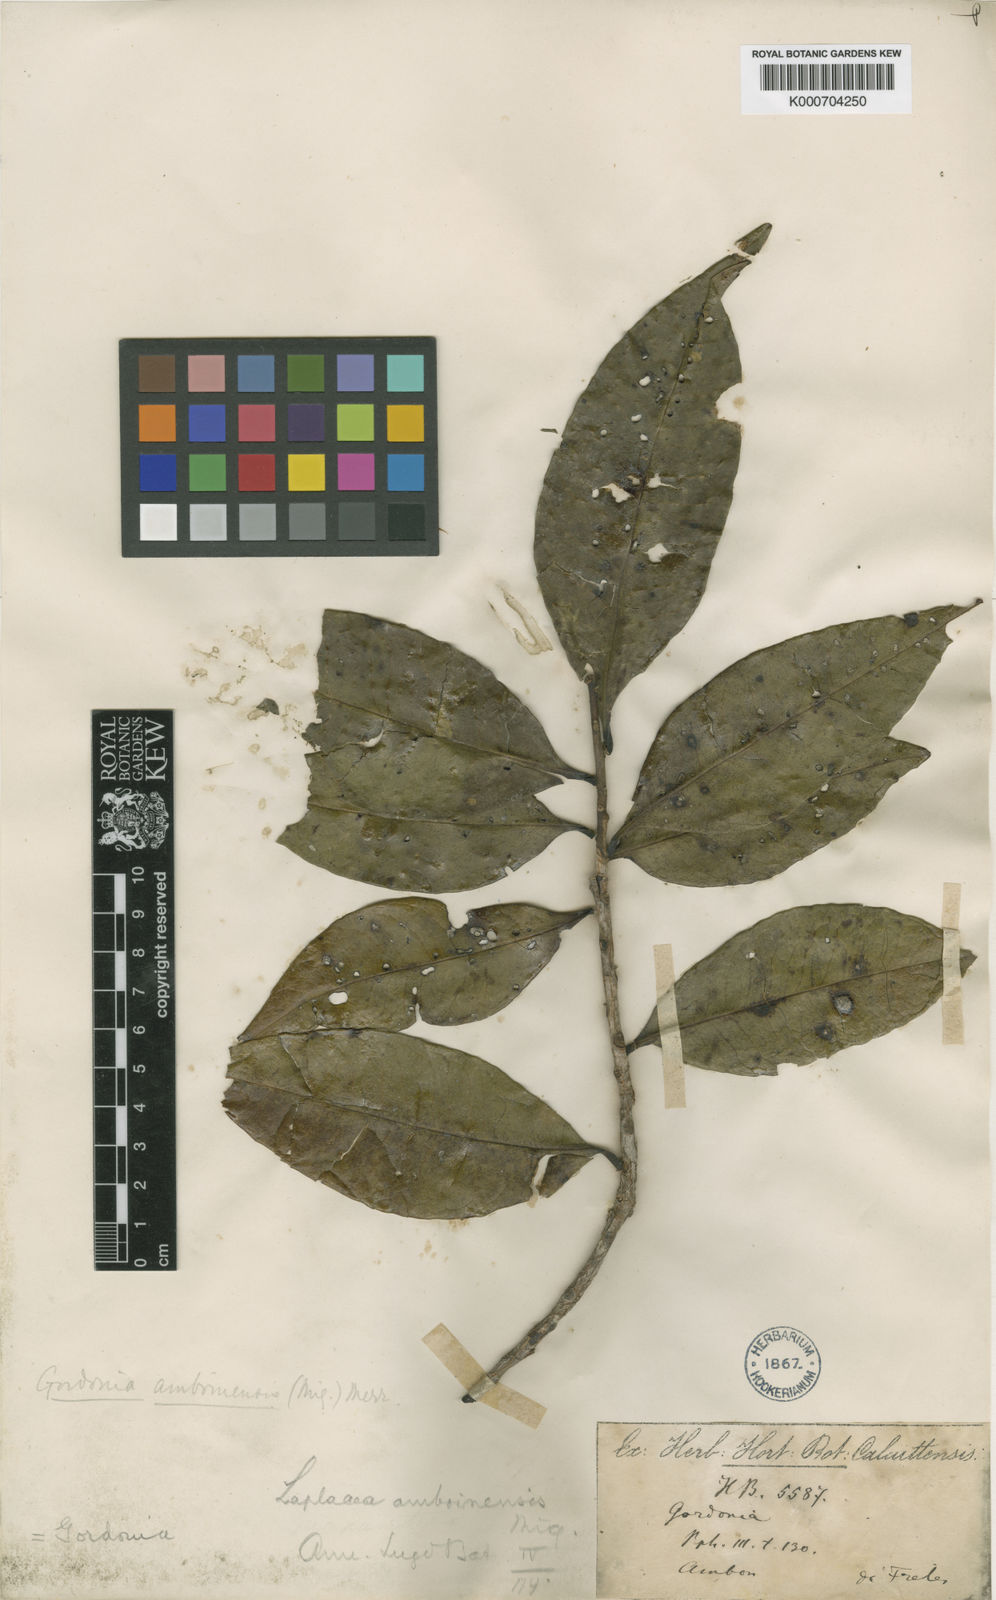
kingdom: Plantae
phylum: Tracheophyta
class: Magnoliopsida
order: Ericales
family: Theaceae
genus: Polyspora
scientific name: Polyspora amboinensis
